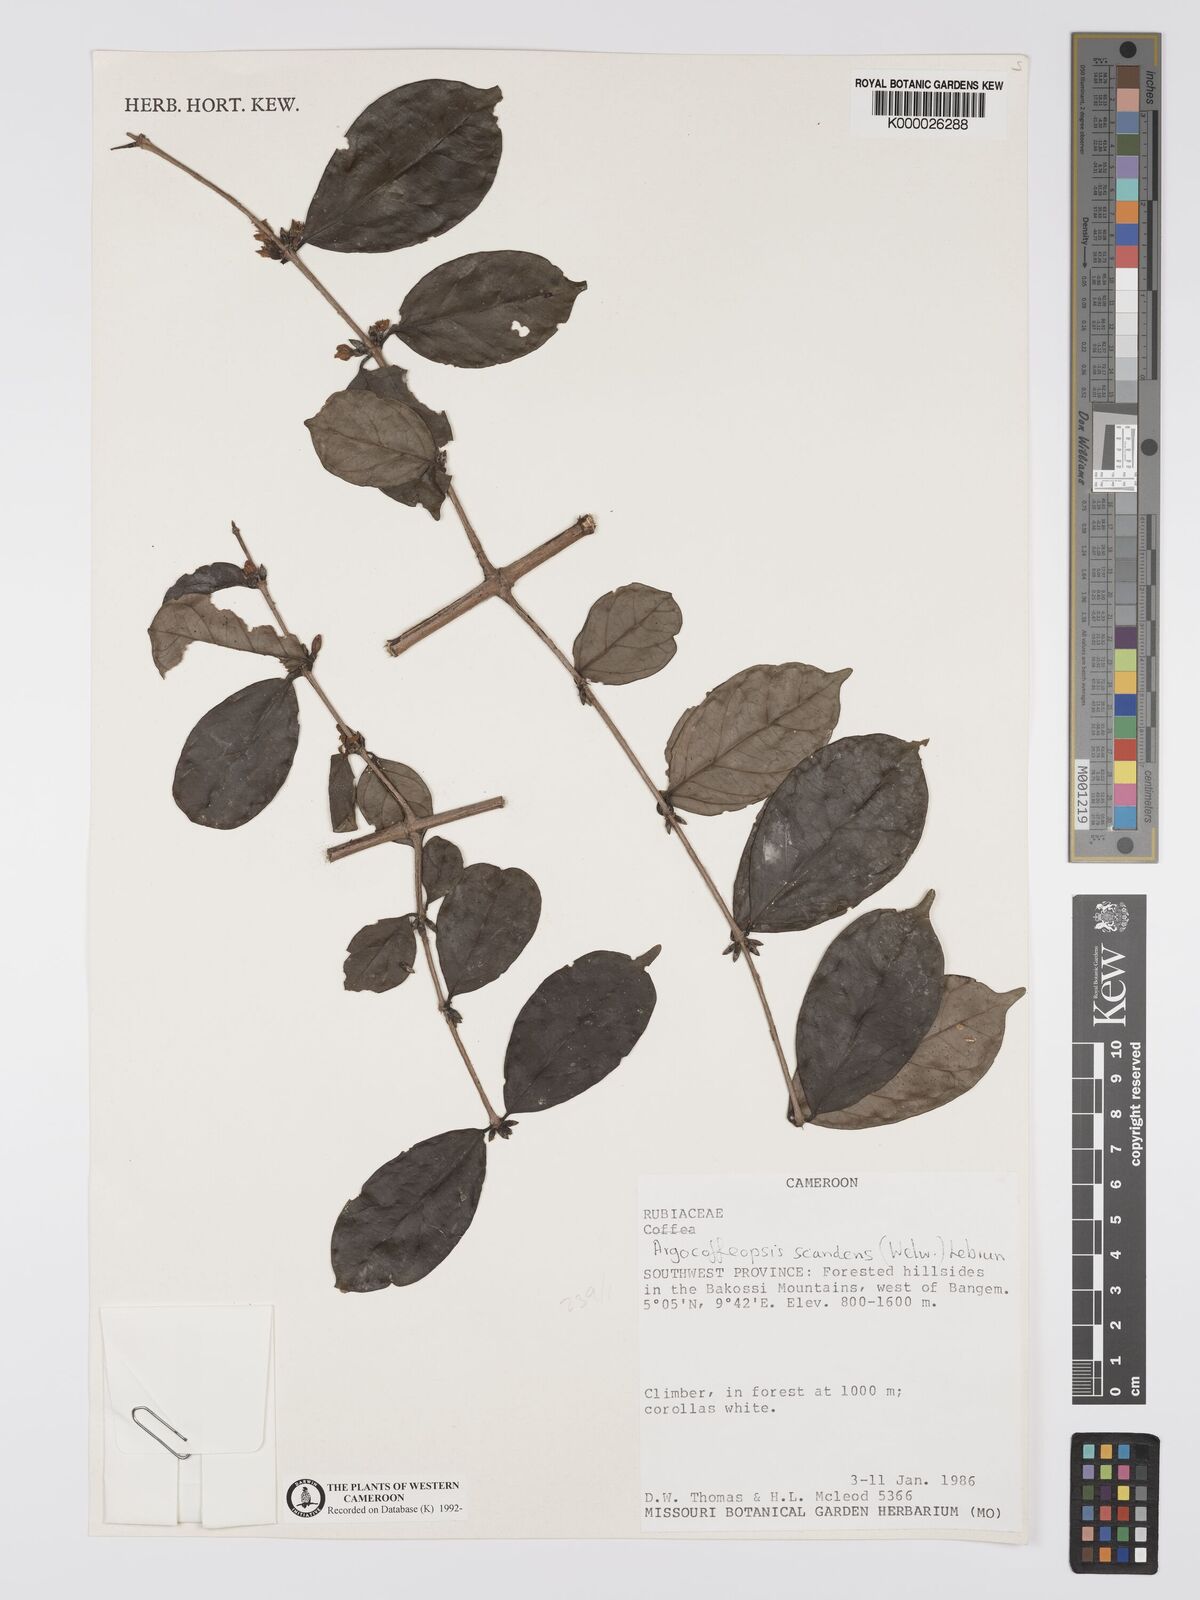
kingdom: Plantae
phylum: Tracheophyta
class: Magnoliopsida
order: Gentianales
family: Rubiaceae
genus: Argocoffeopsis
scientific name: Argocoffeopsis scandens
